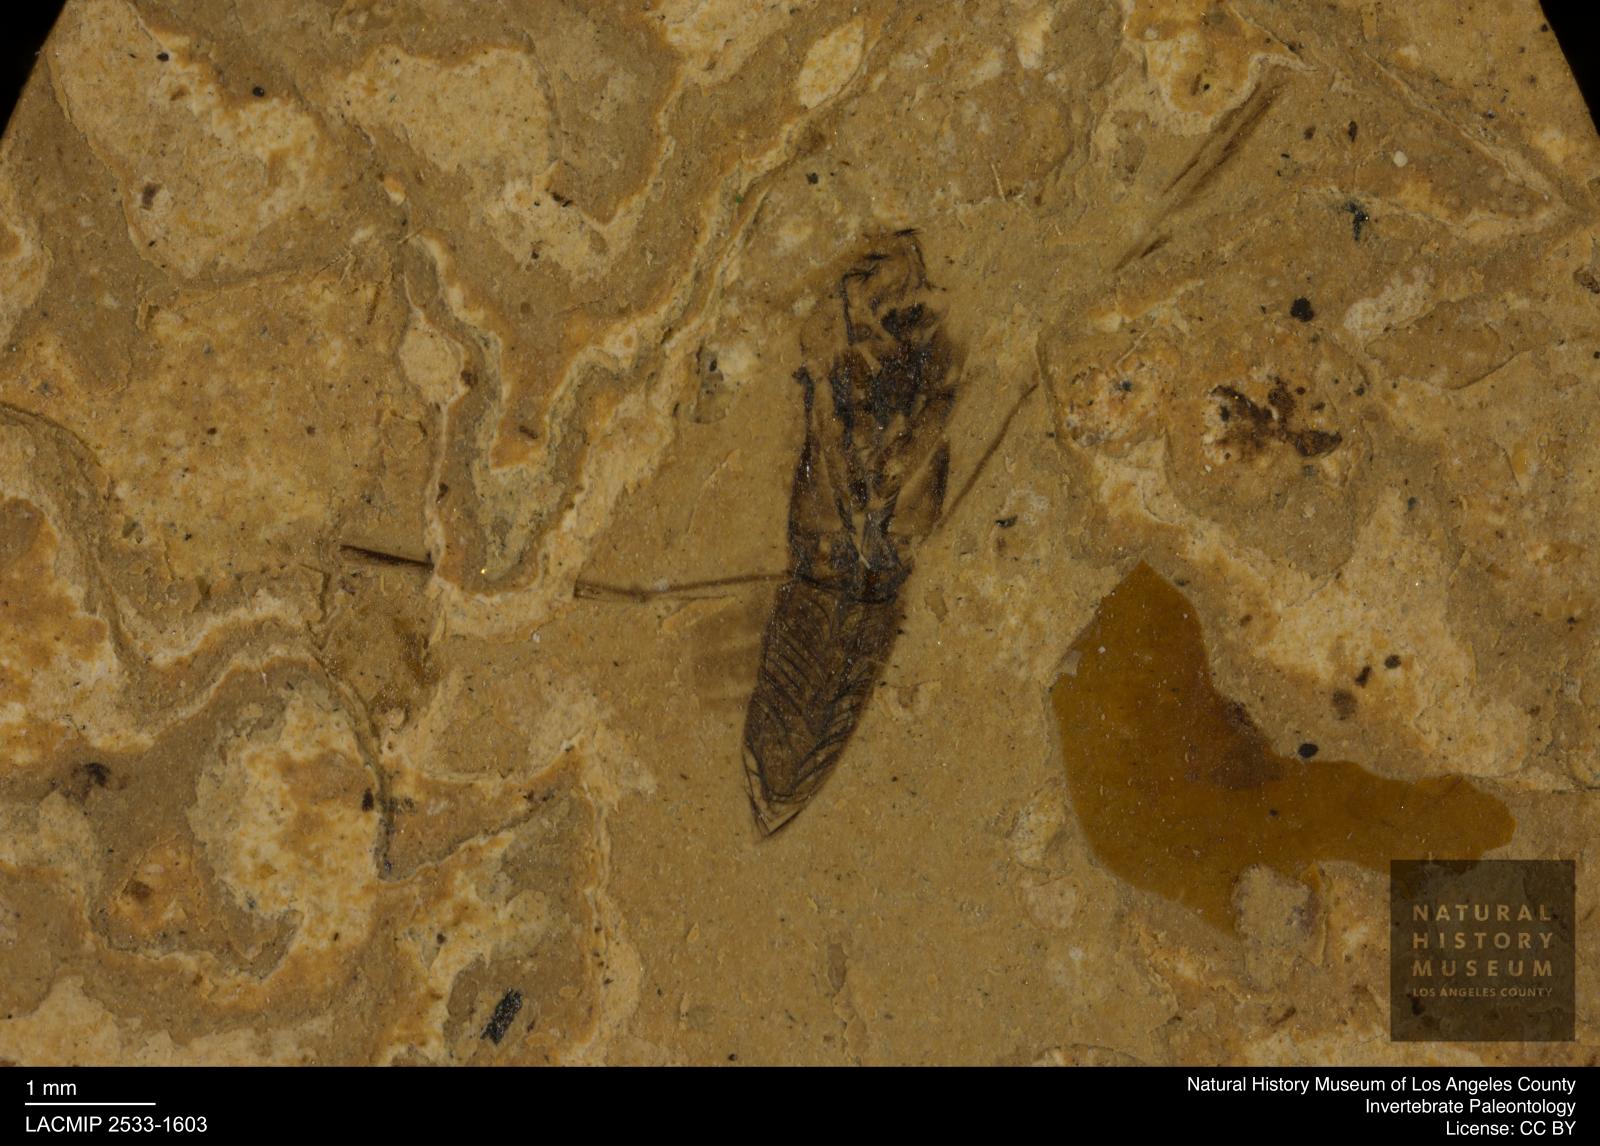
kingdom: Animalia
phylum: Arthropoda
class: Insecta
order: Hemiptera
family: Notonectidae
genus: Notonecta
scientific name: Notonecta
